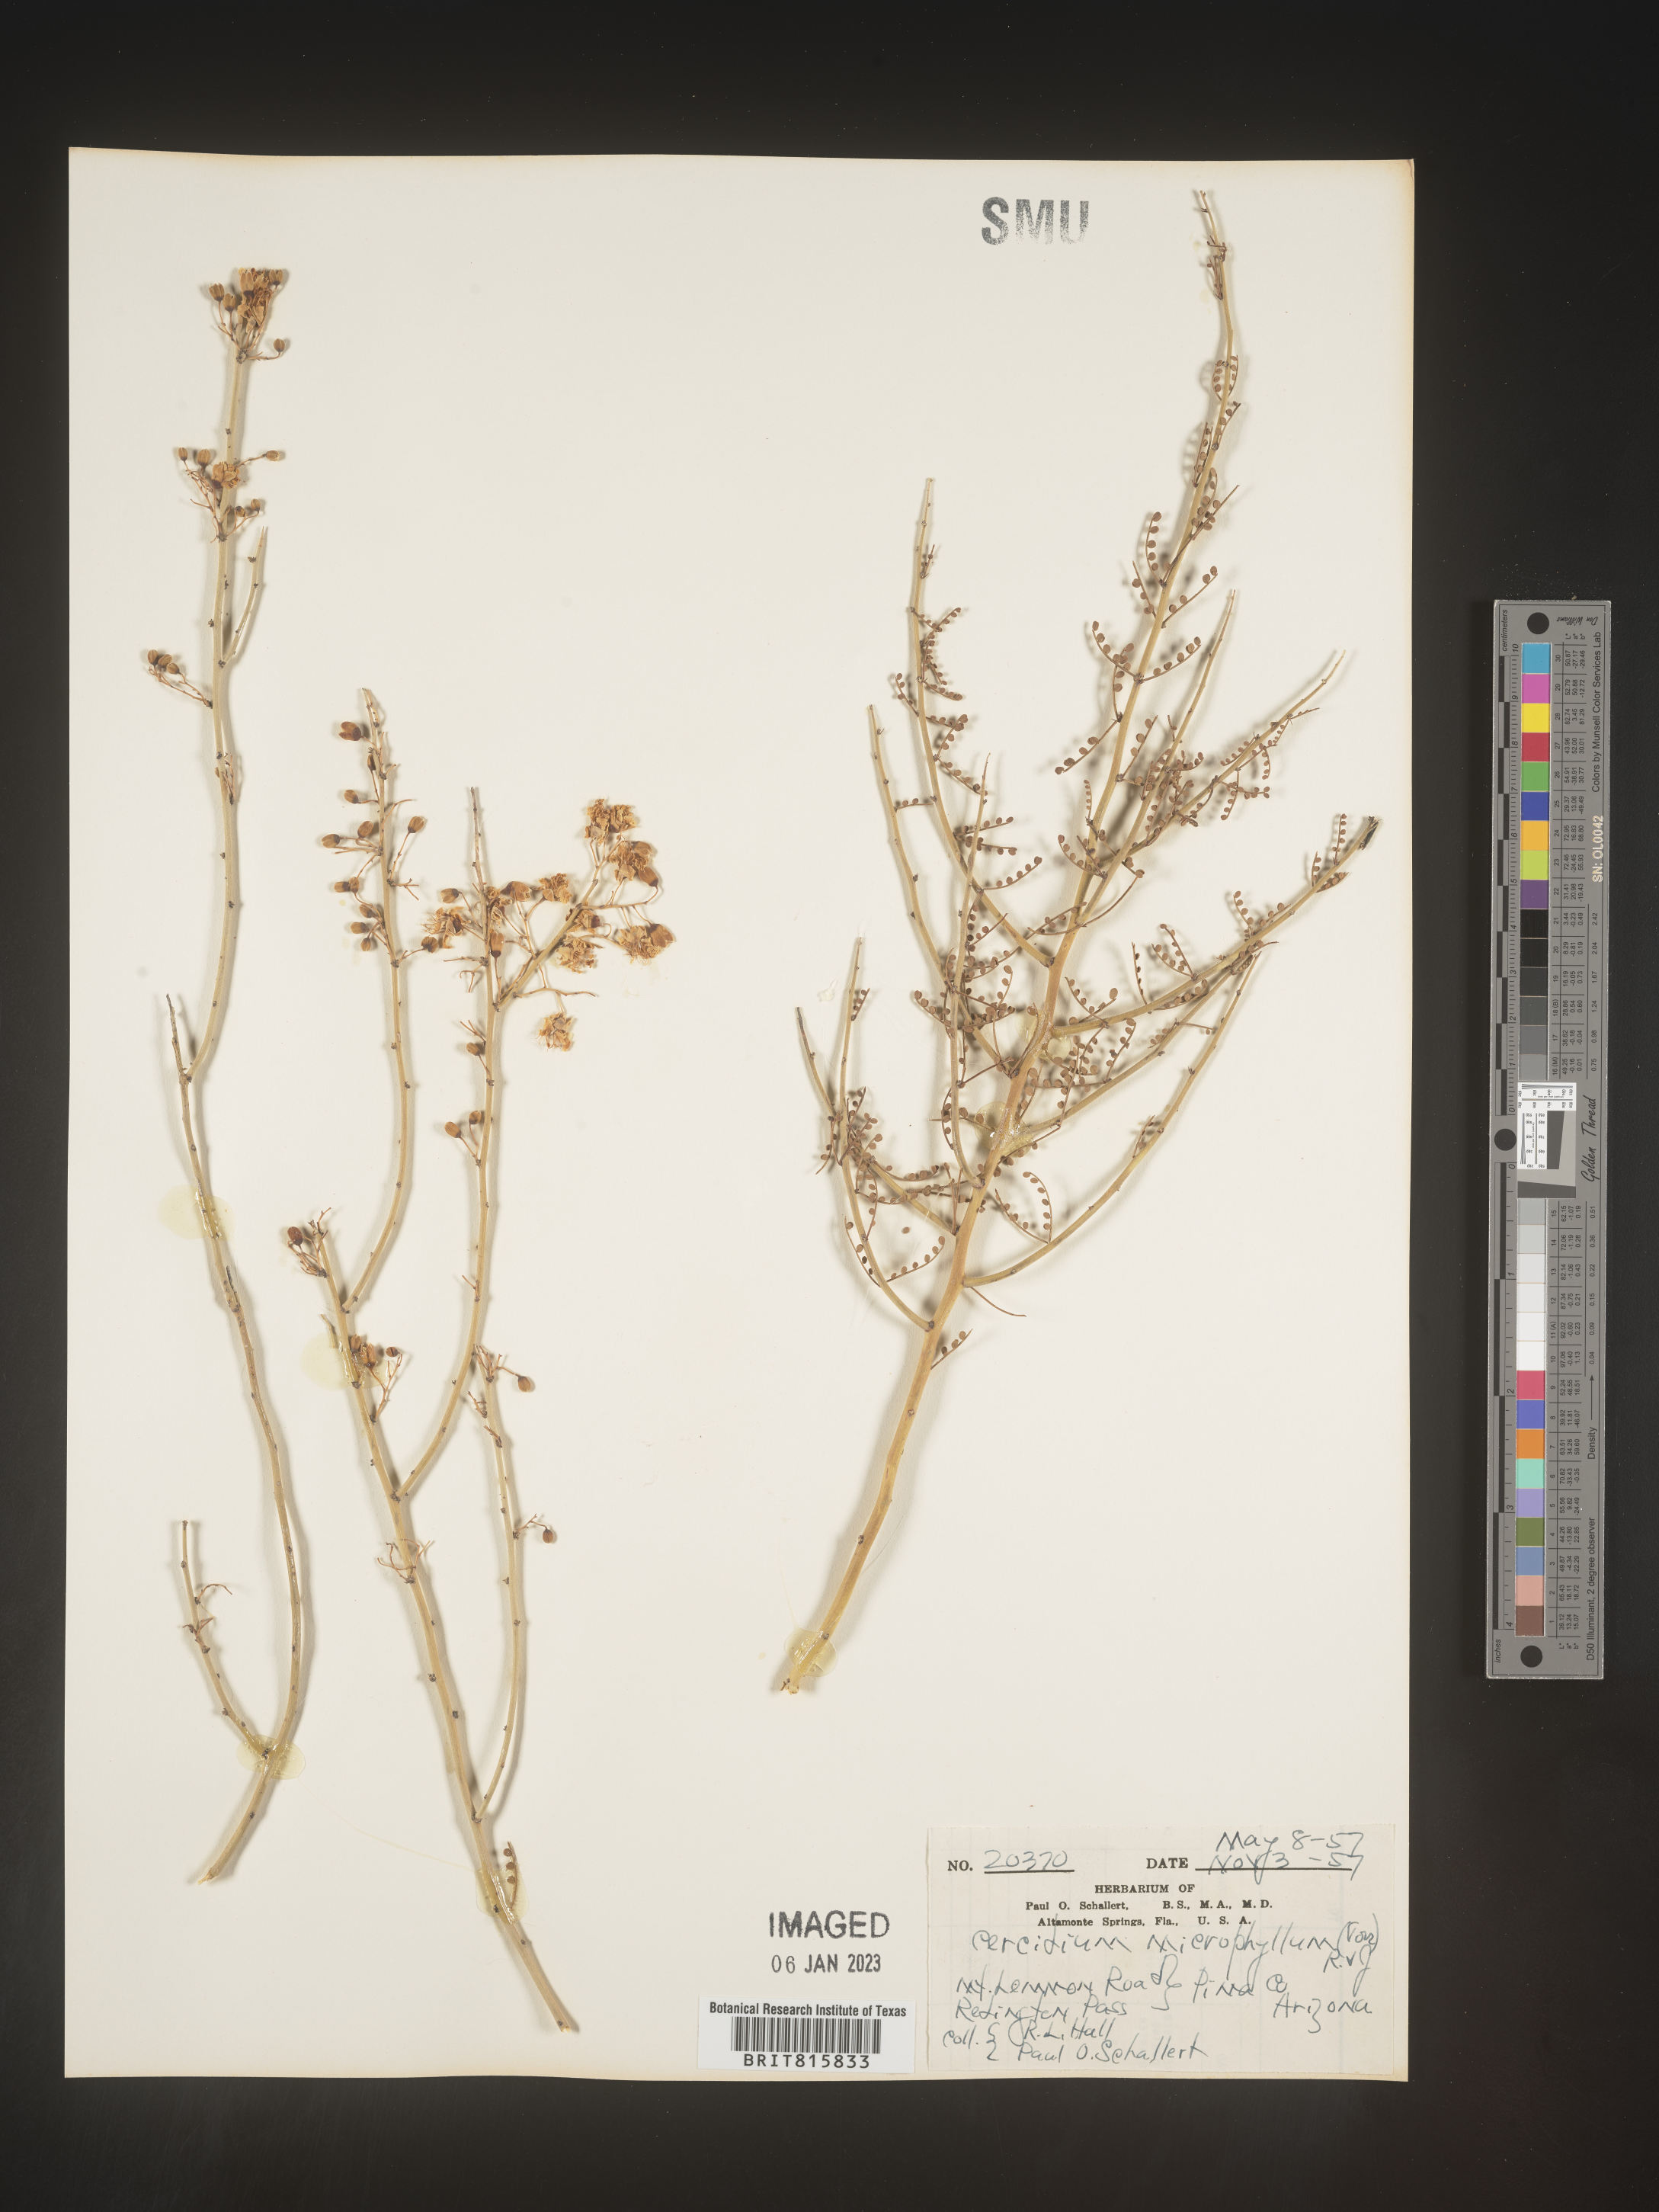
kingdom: Plantae
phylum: Chlorophyta
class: Chlorophyceae
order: Volvocales
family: Chlamydomonadaceae
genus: Cercidium
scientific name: Cercidium
